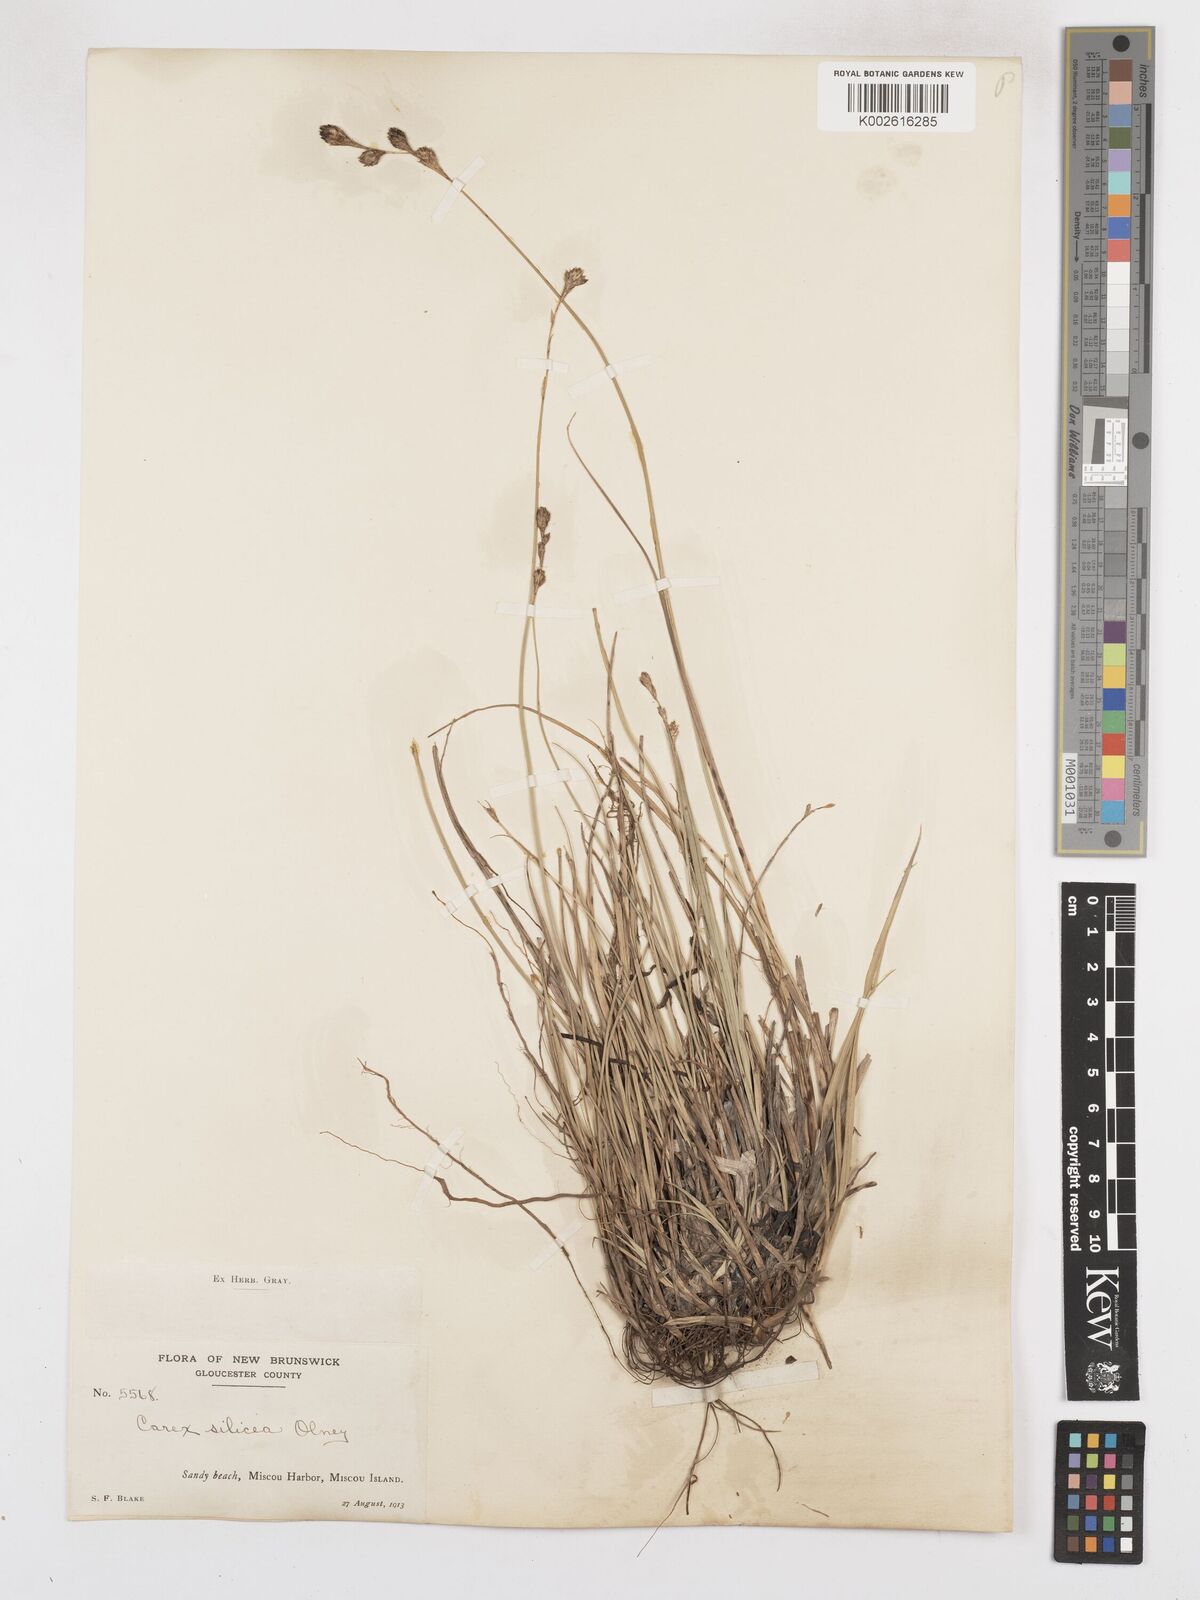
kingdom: Plantae
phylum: Tracheophyta
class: Liliopsida
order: Poales
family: Cyperaceae
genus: Carex
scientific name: Carex silicea
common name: Beach sedge
